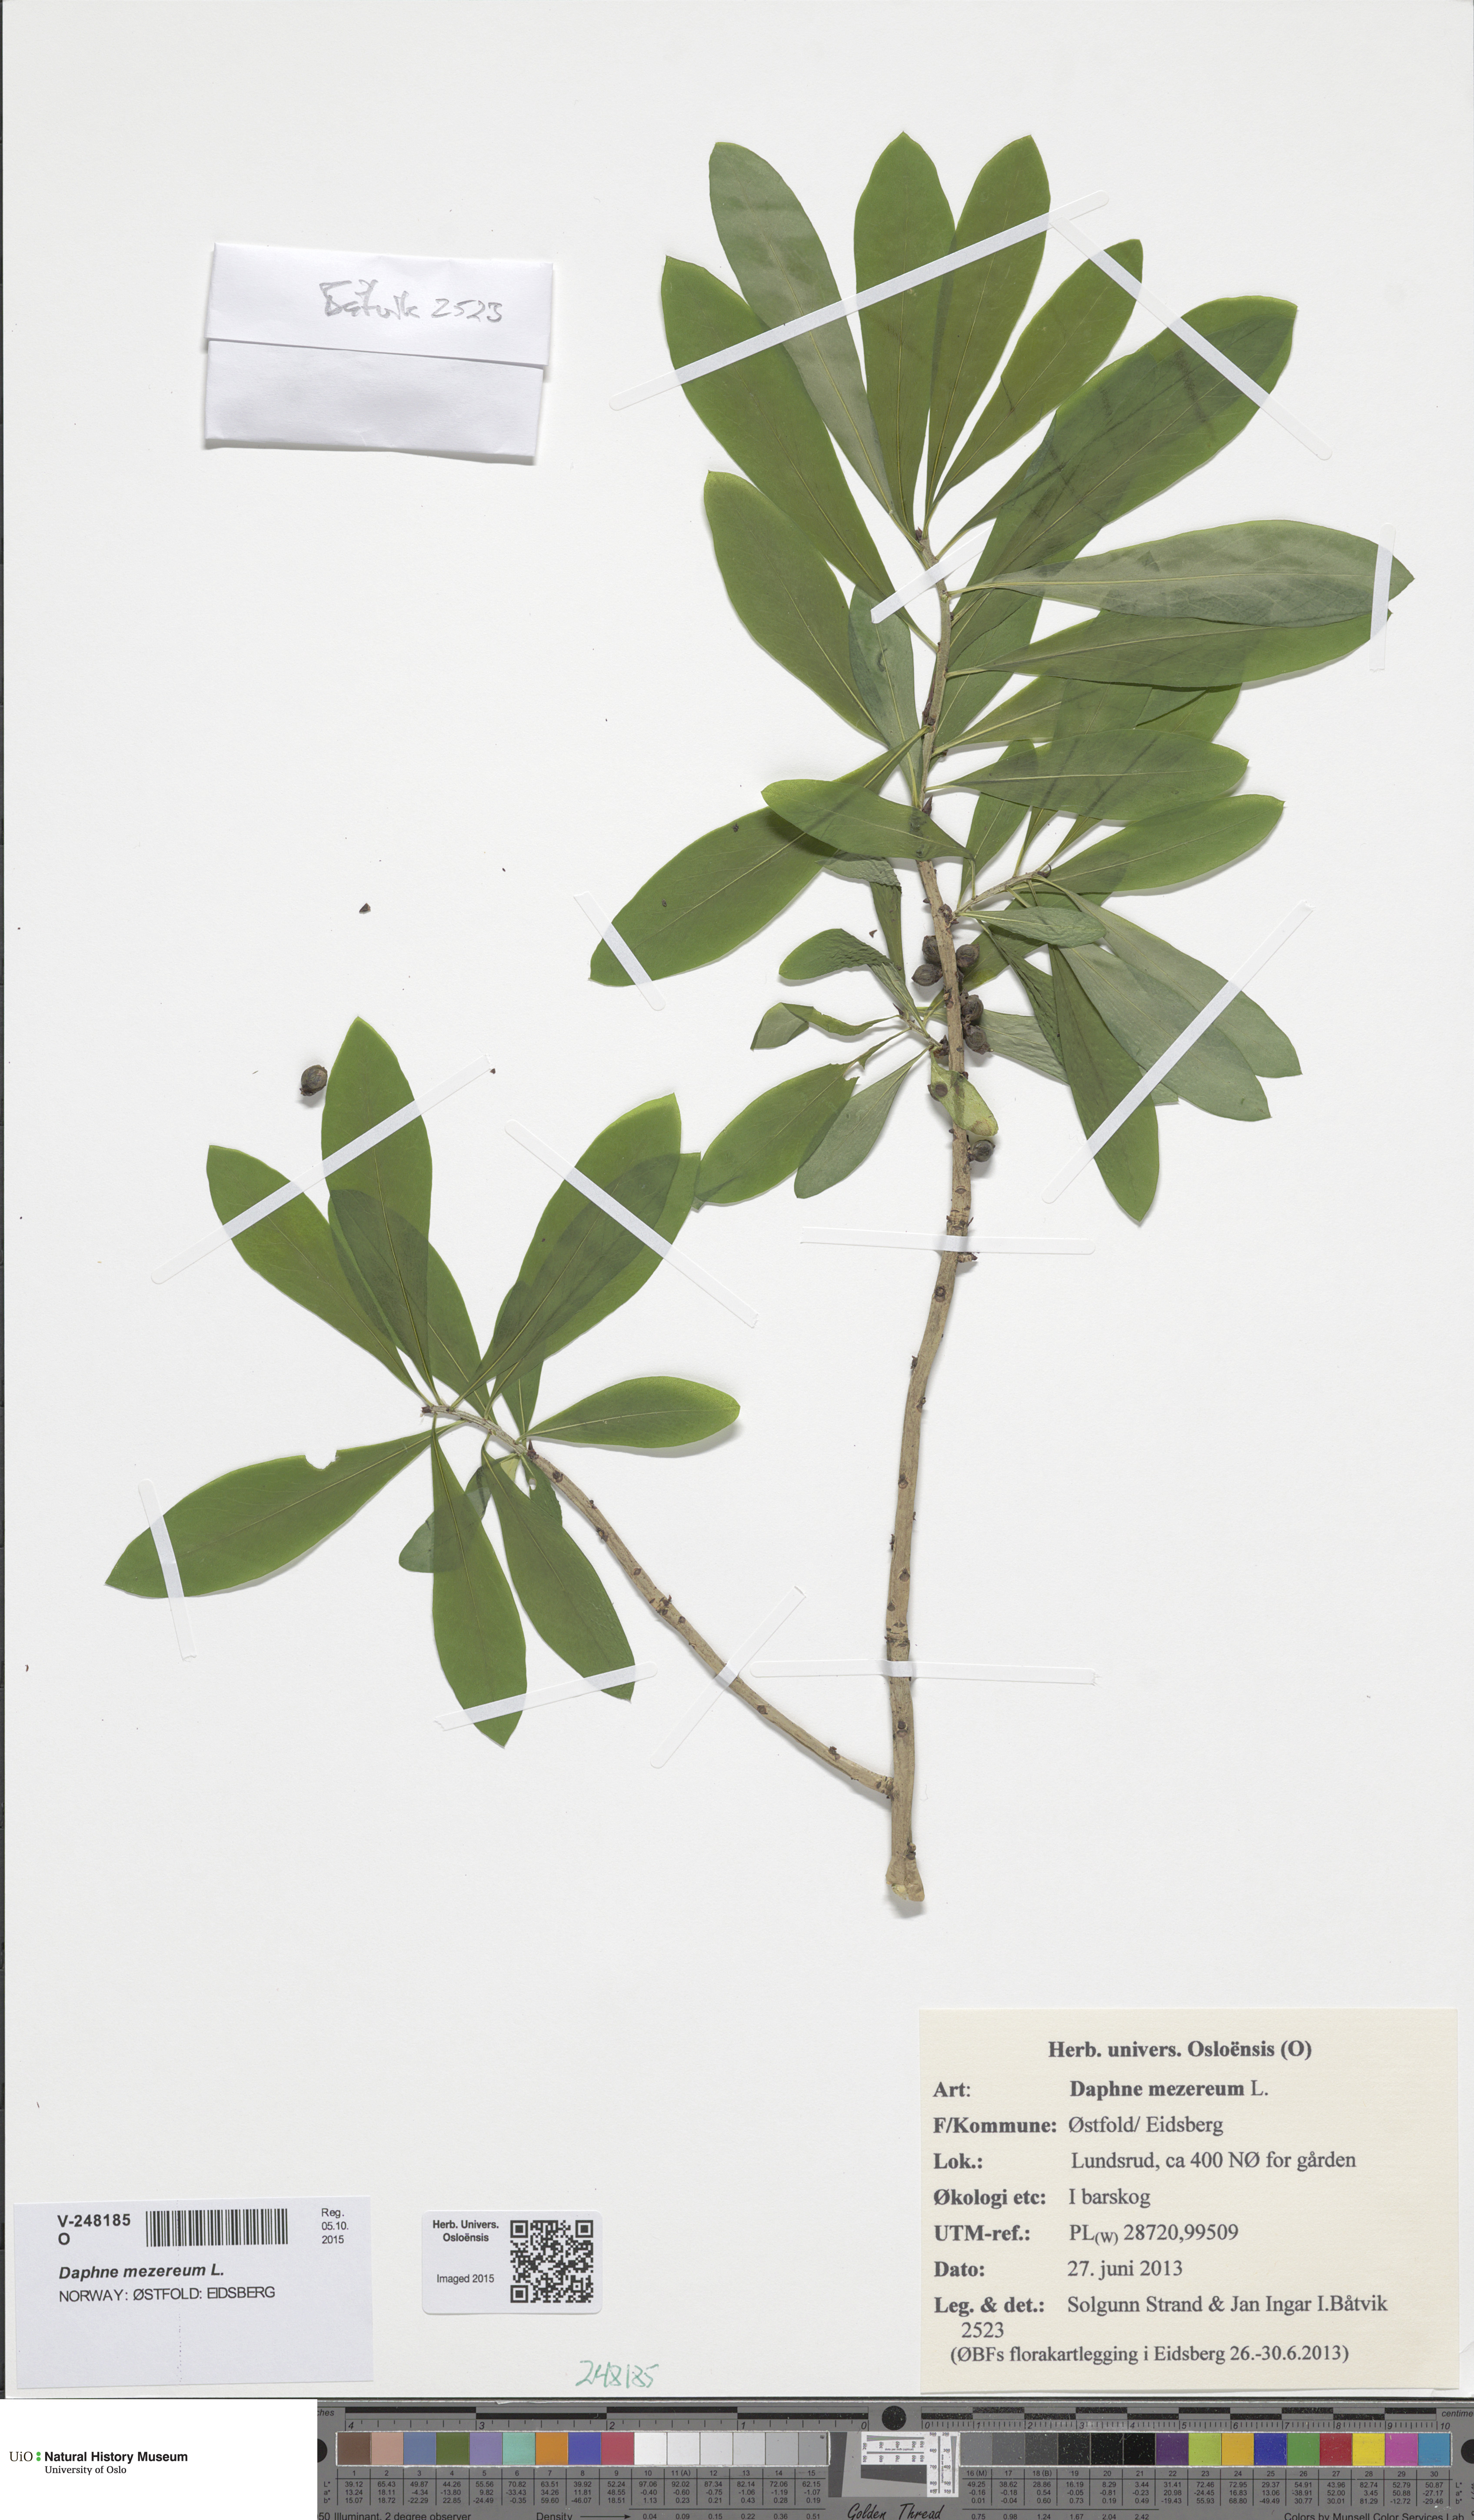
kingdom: Plantae
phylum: Tracheophyta
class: Magnoliopsida
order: Malvales
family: Thymelaeaceae
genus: Daphne
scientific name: Daphne mezereum
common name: Mezereon
